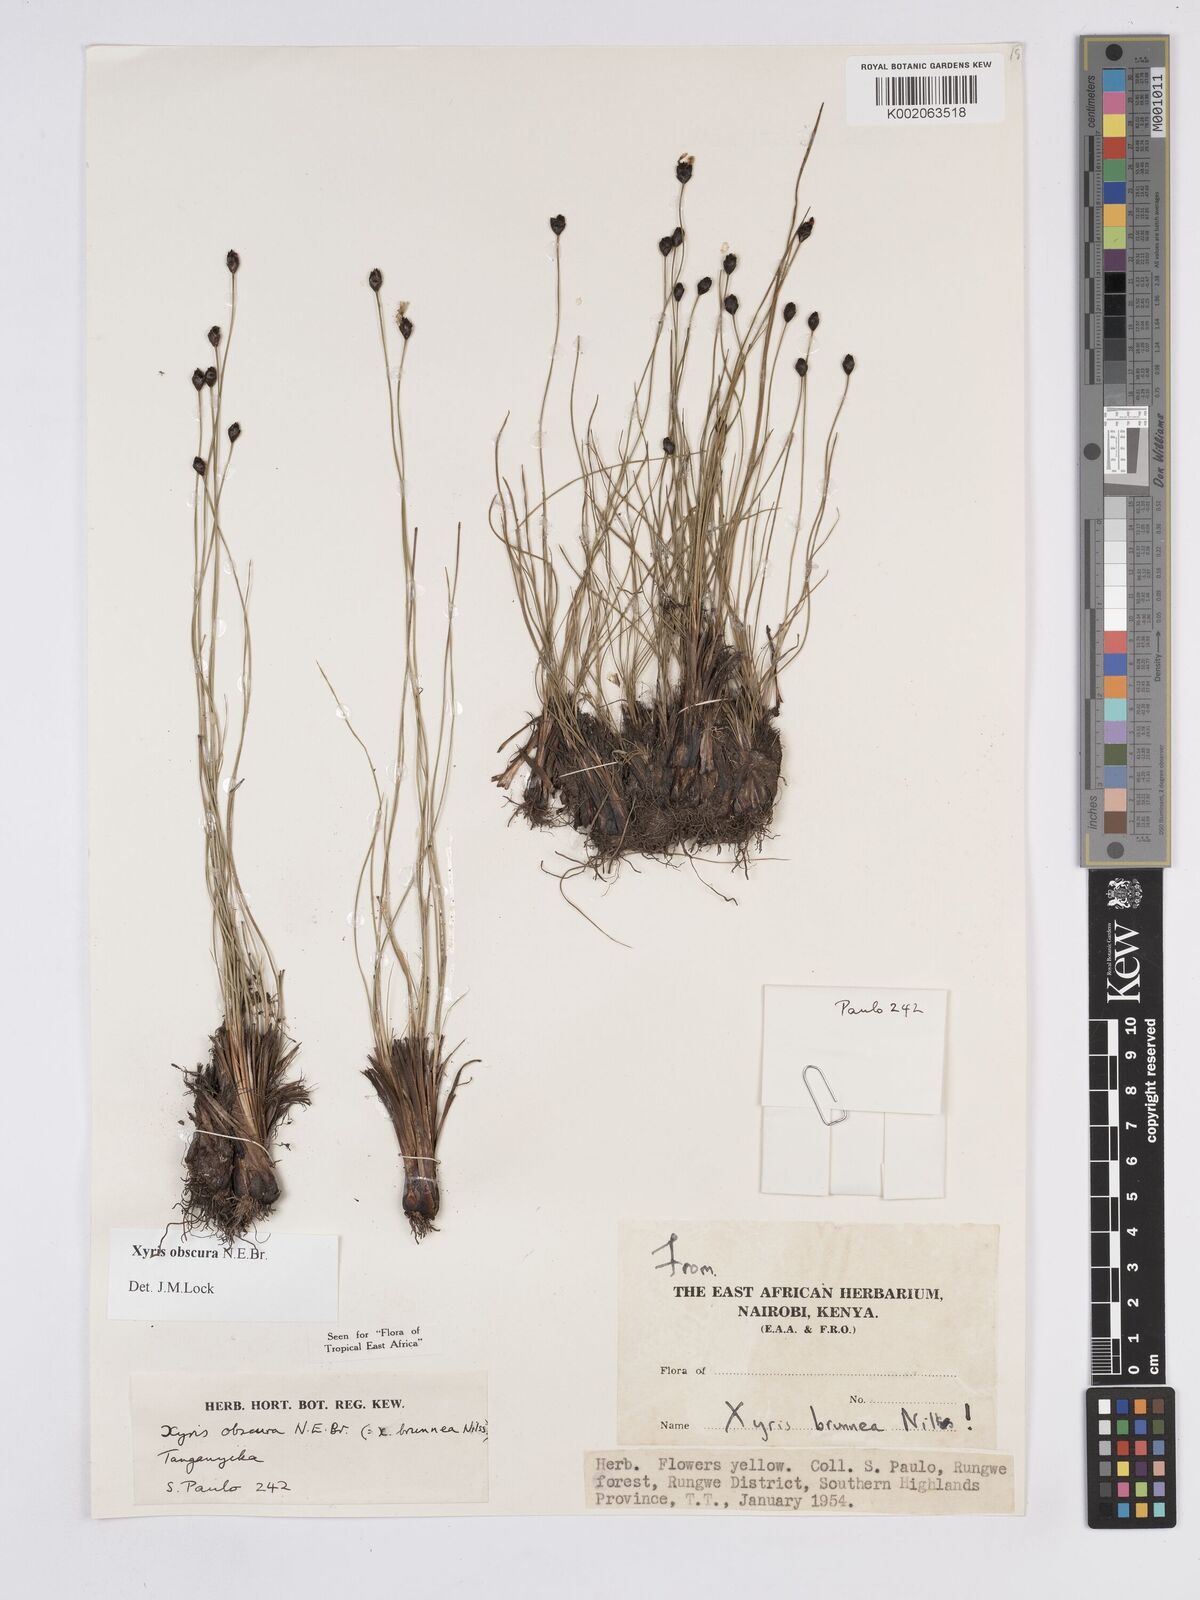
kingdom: Plantae
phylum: Tracheophyta
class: Liliopsida
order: Poales
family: Xyridaceae
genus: Xyris
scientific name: Xyris obscura
